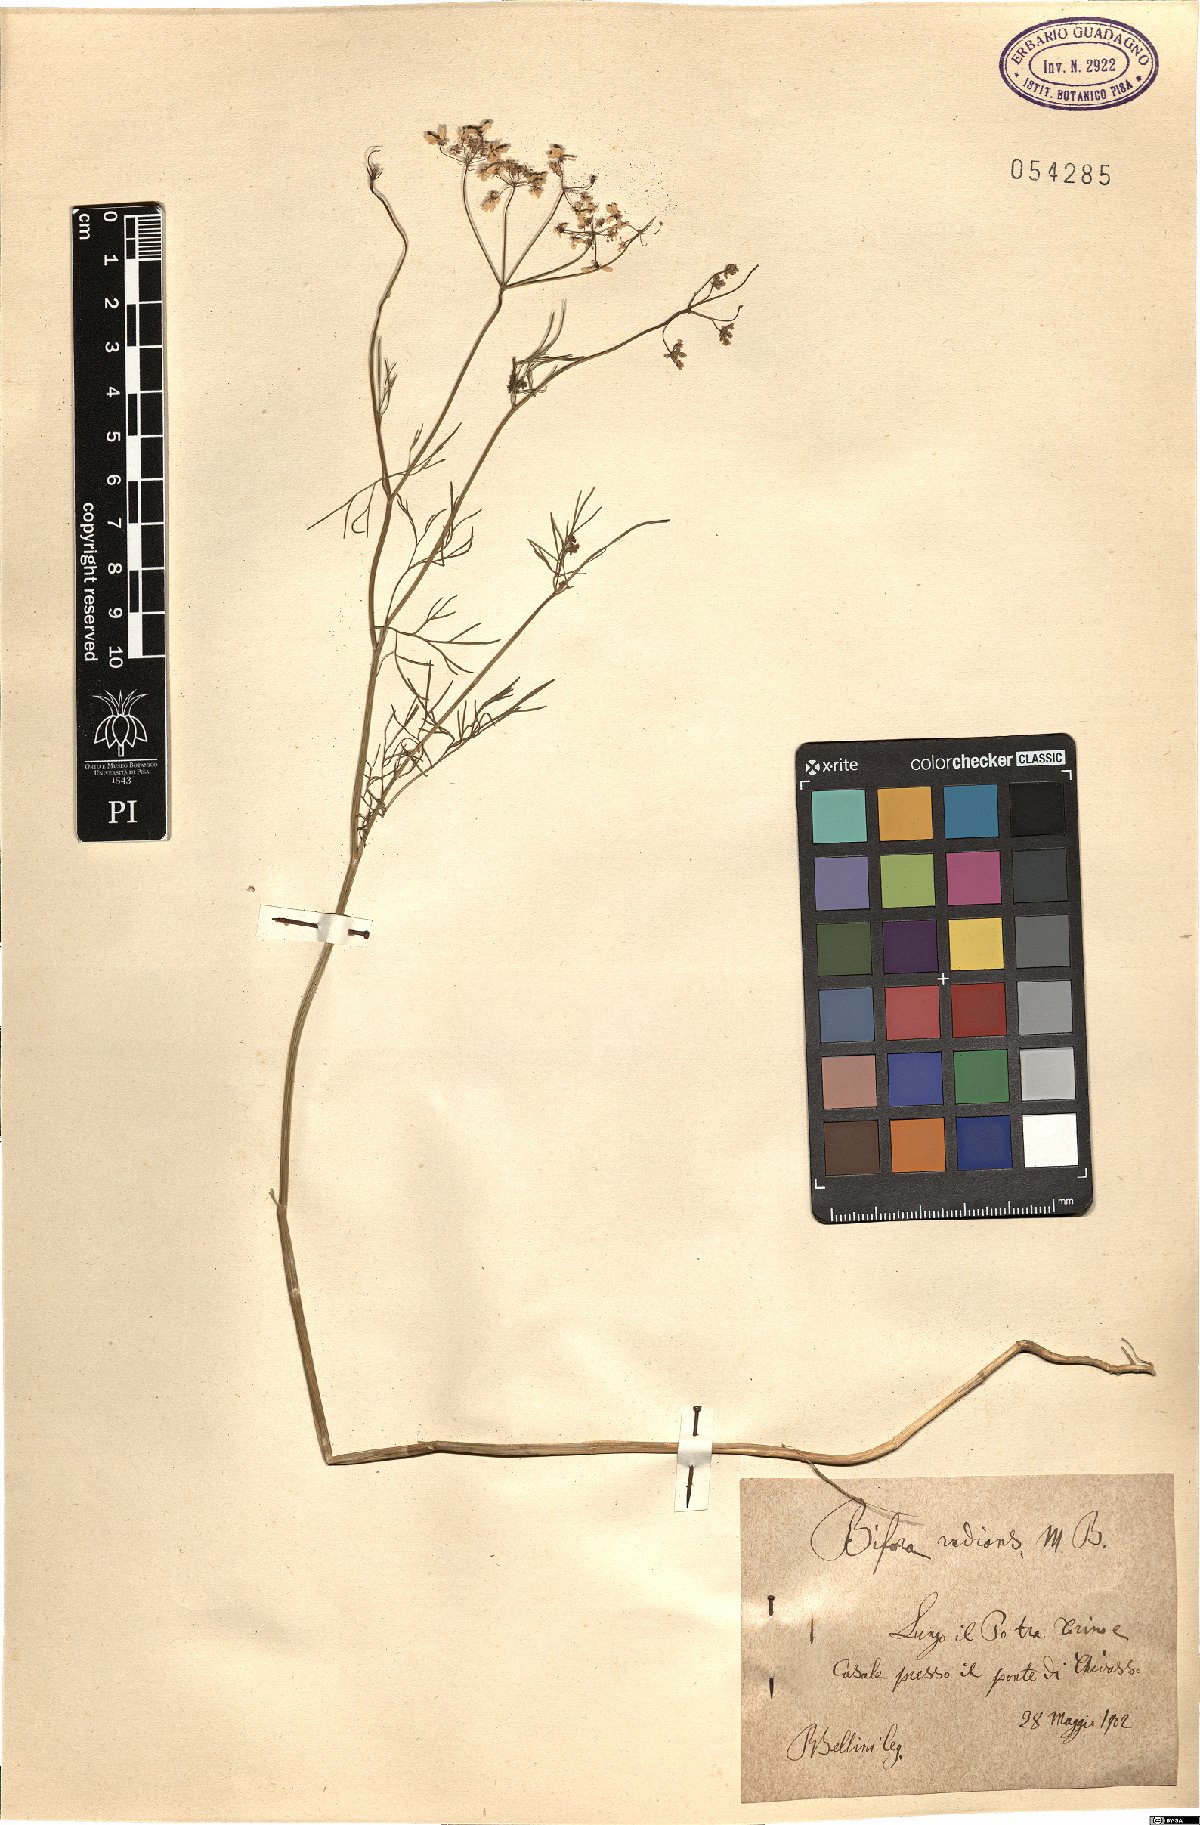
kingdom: Plantae
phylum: Tracheophyta
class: Magnoliopsida
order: Apiales
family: Apiaceae
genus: Bifora
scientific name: Bifora radians
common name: Wild bishop
